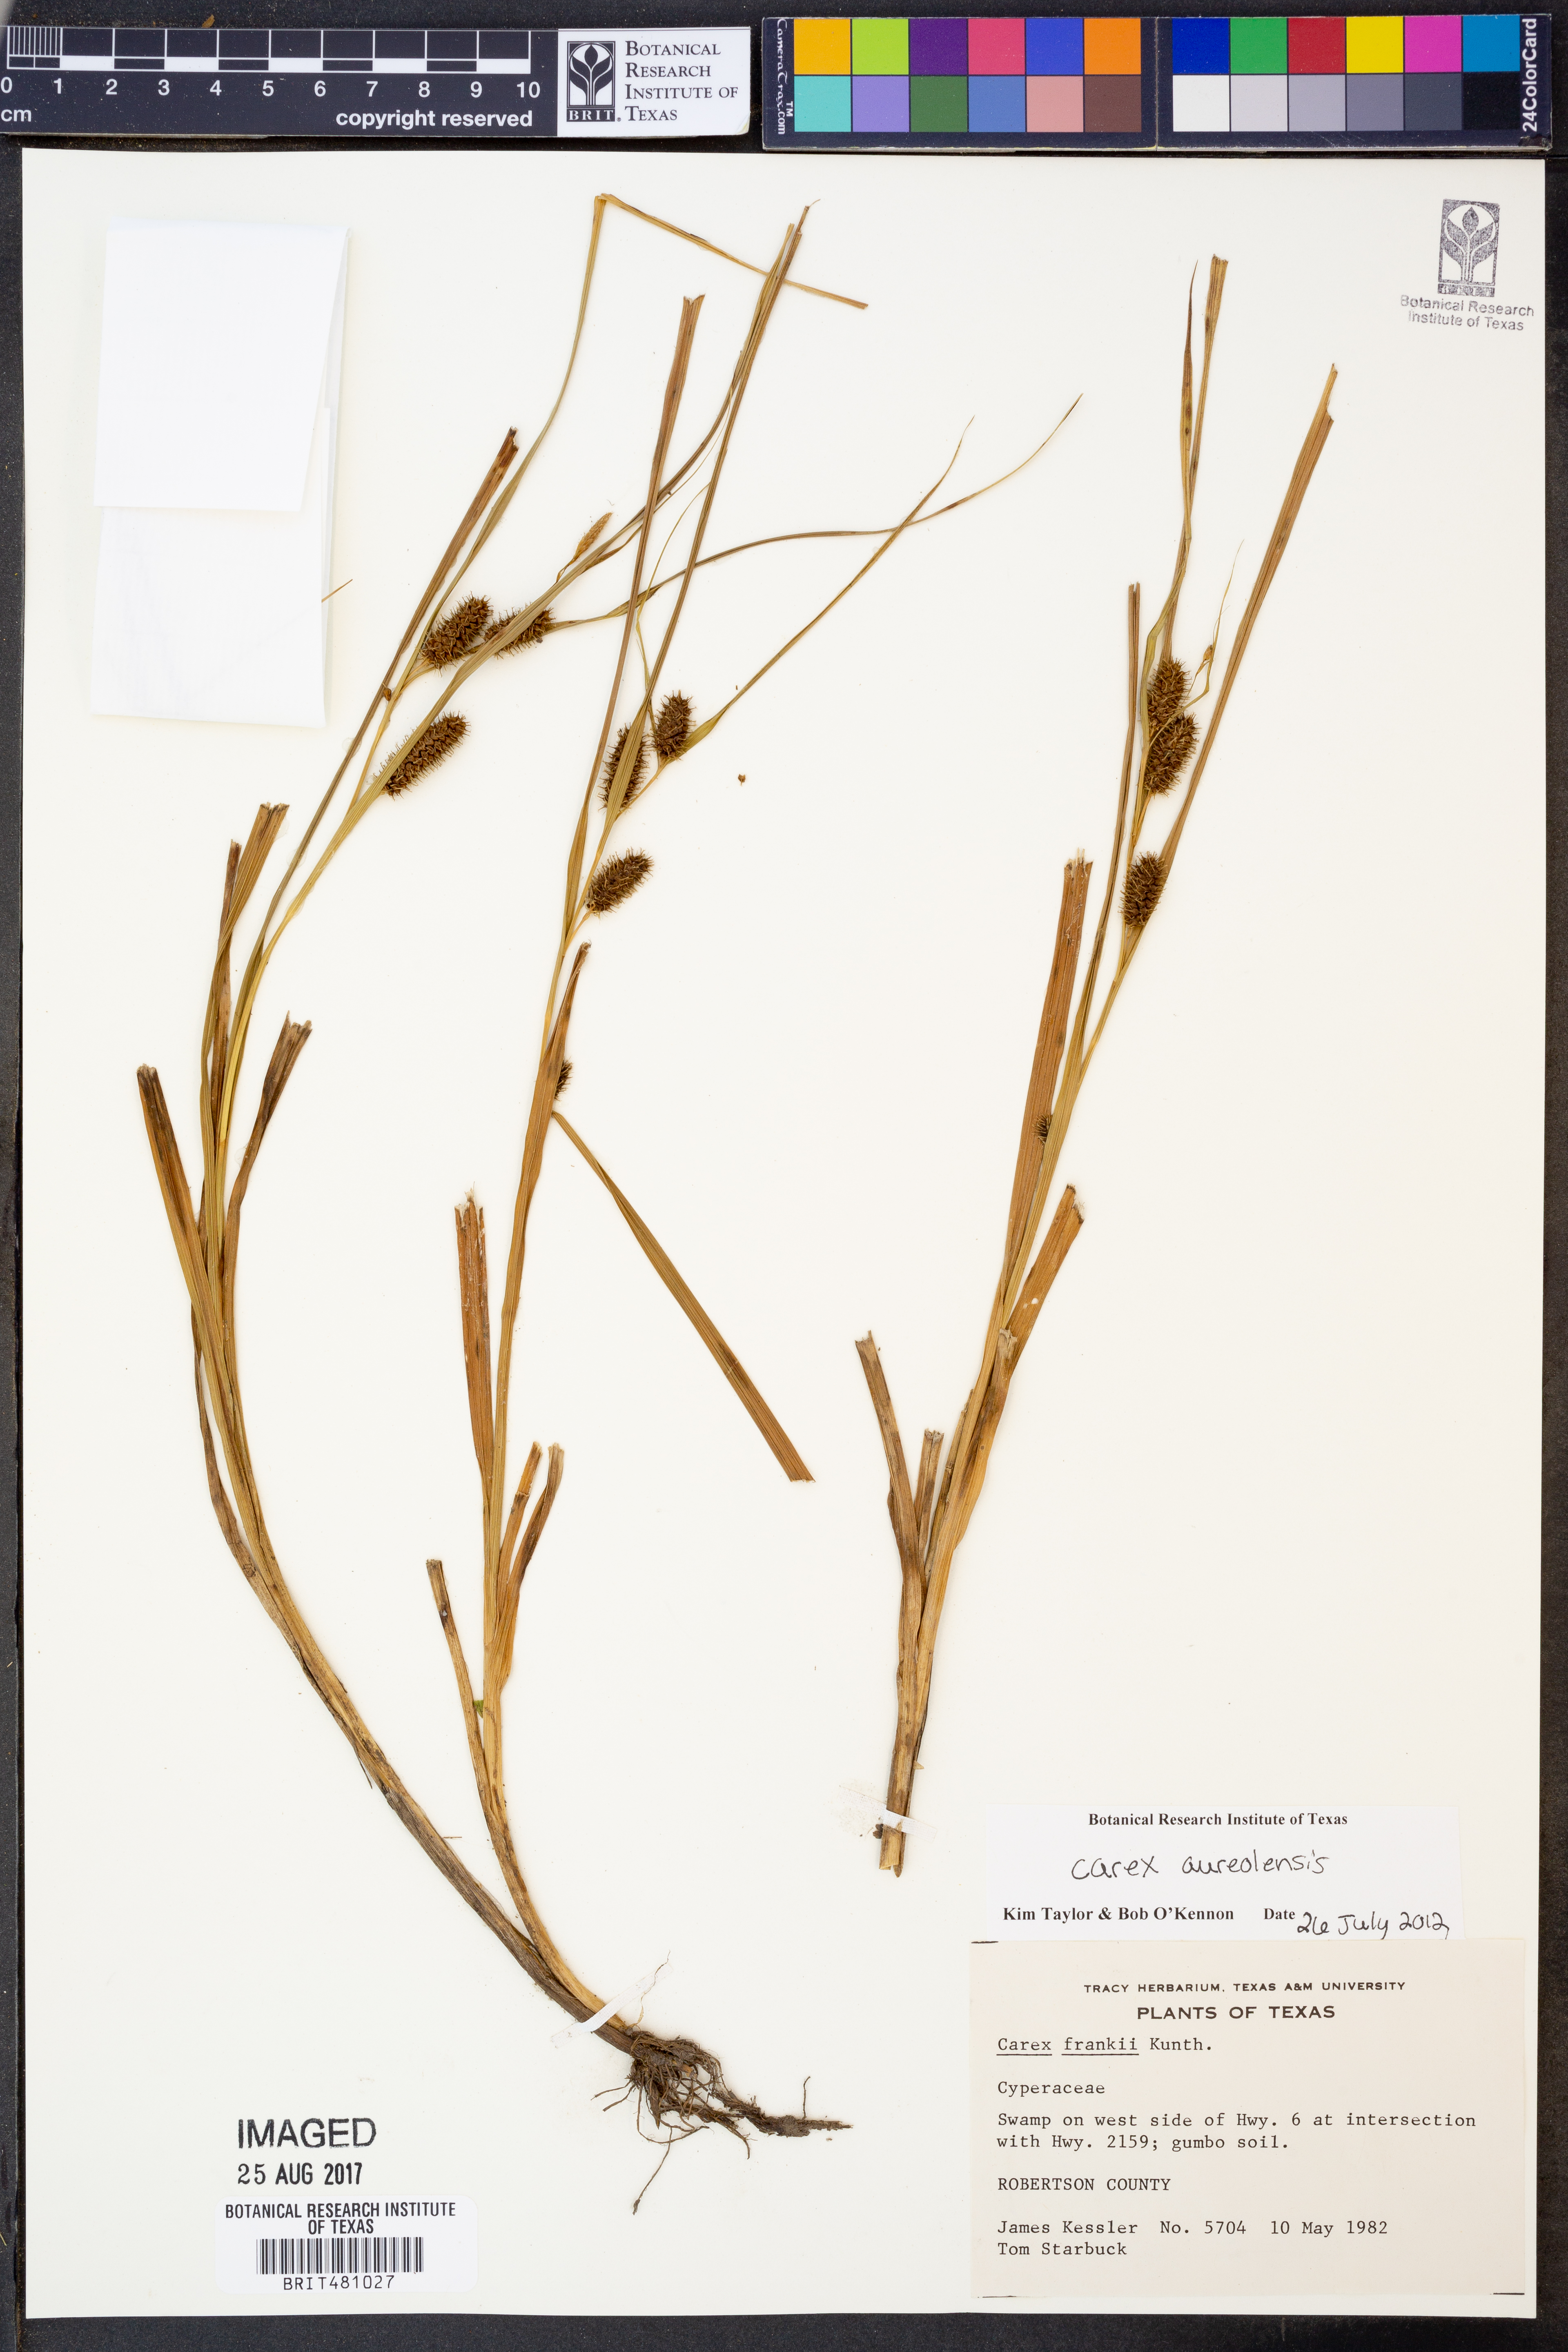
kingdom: Plantae
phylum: Tracheophyta
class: Liliopsida
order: Poales
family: Cyperaceae
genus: Carex
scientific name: Carex aureolensis
